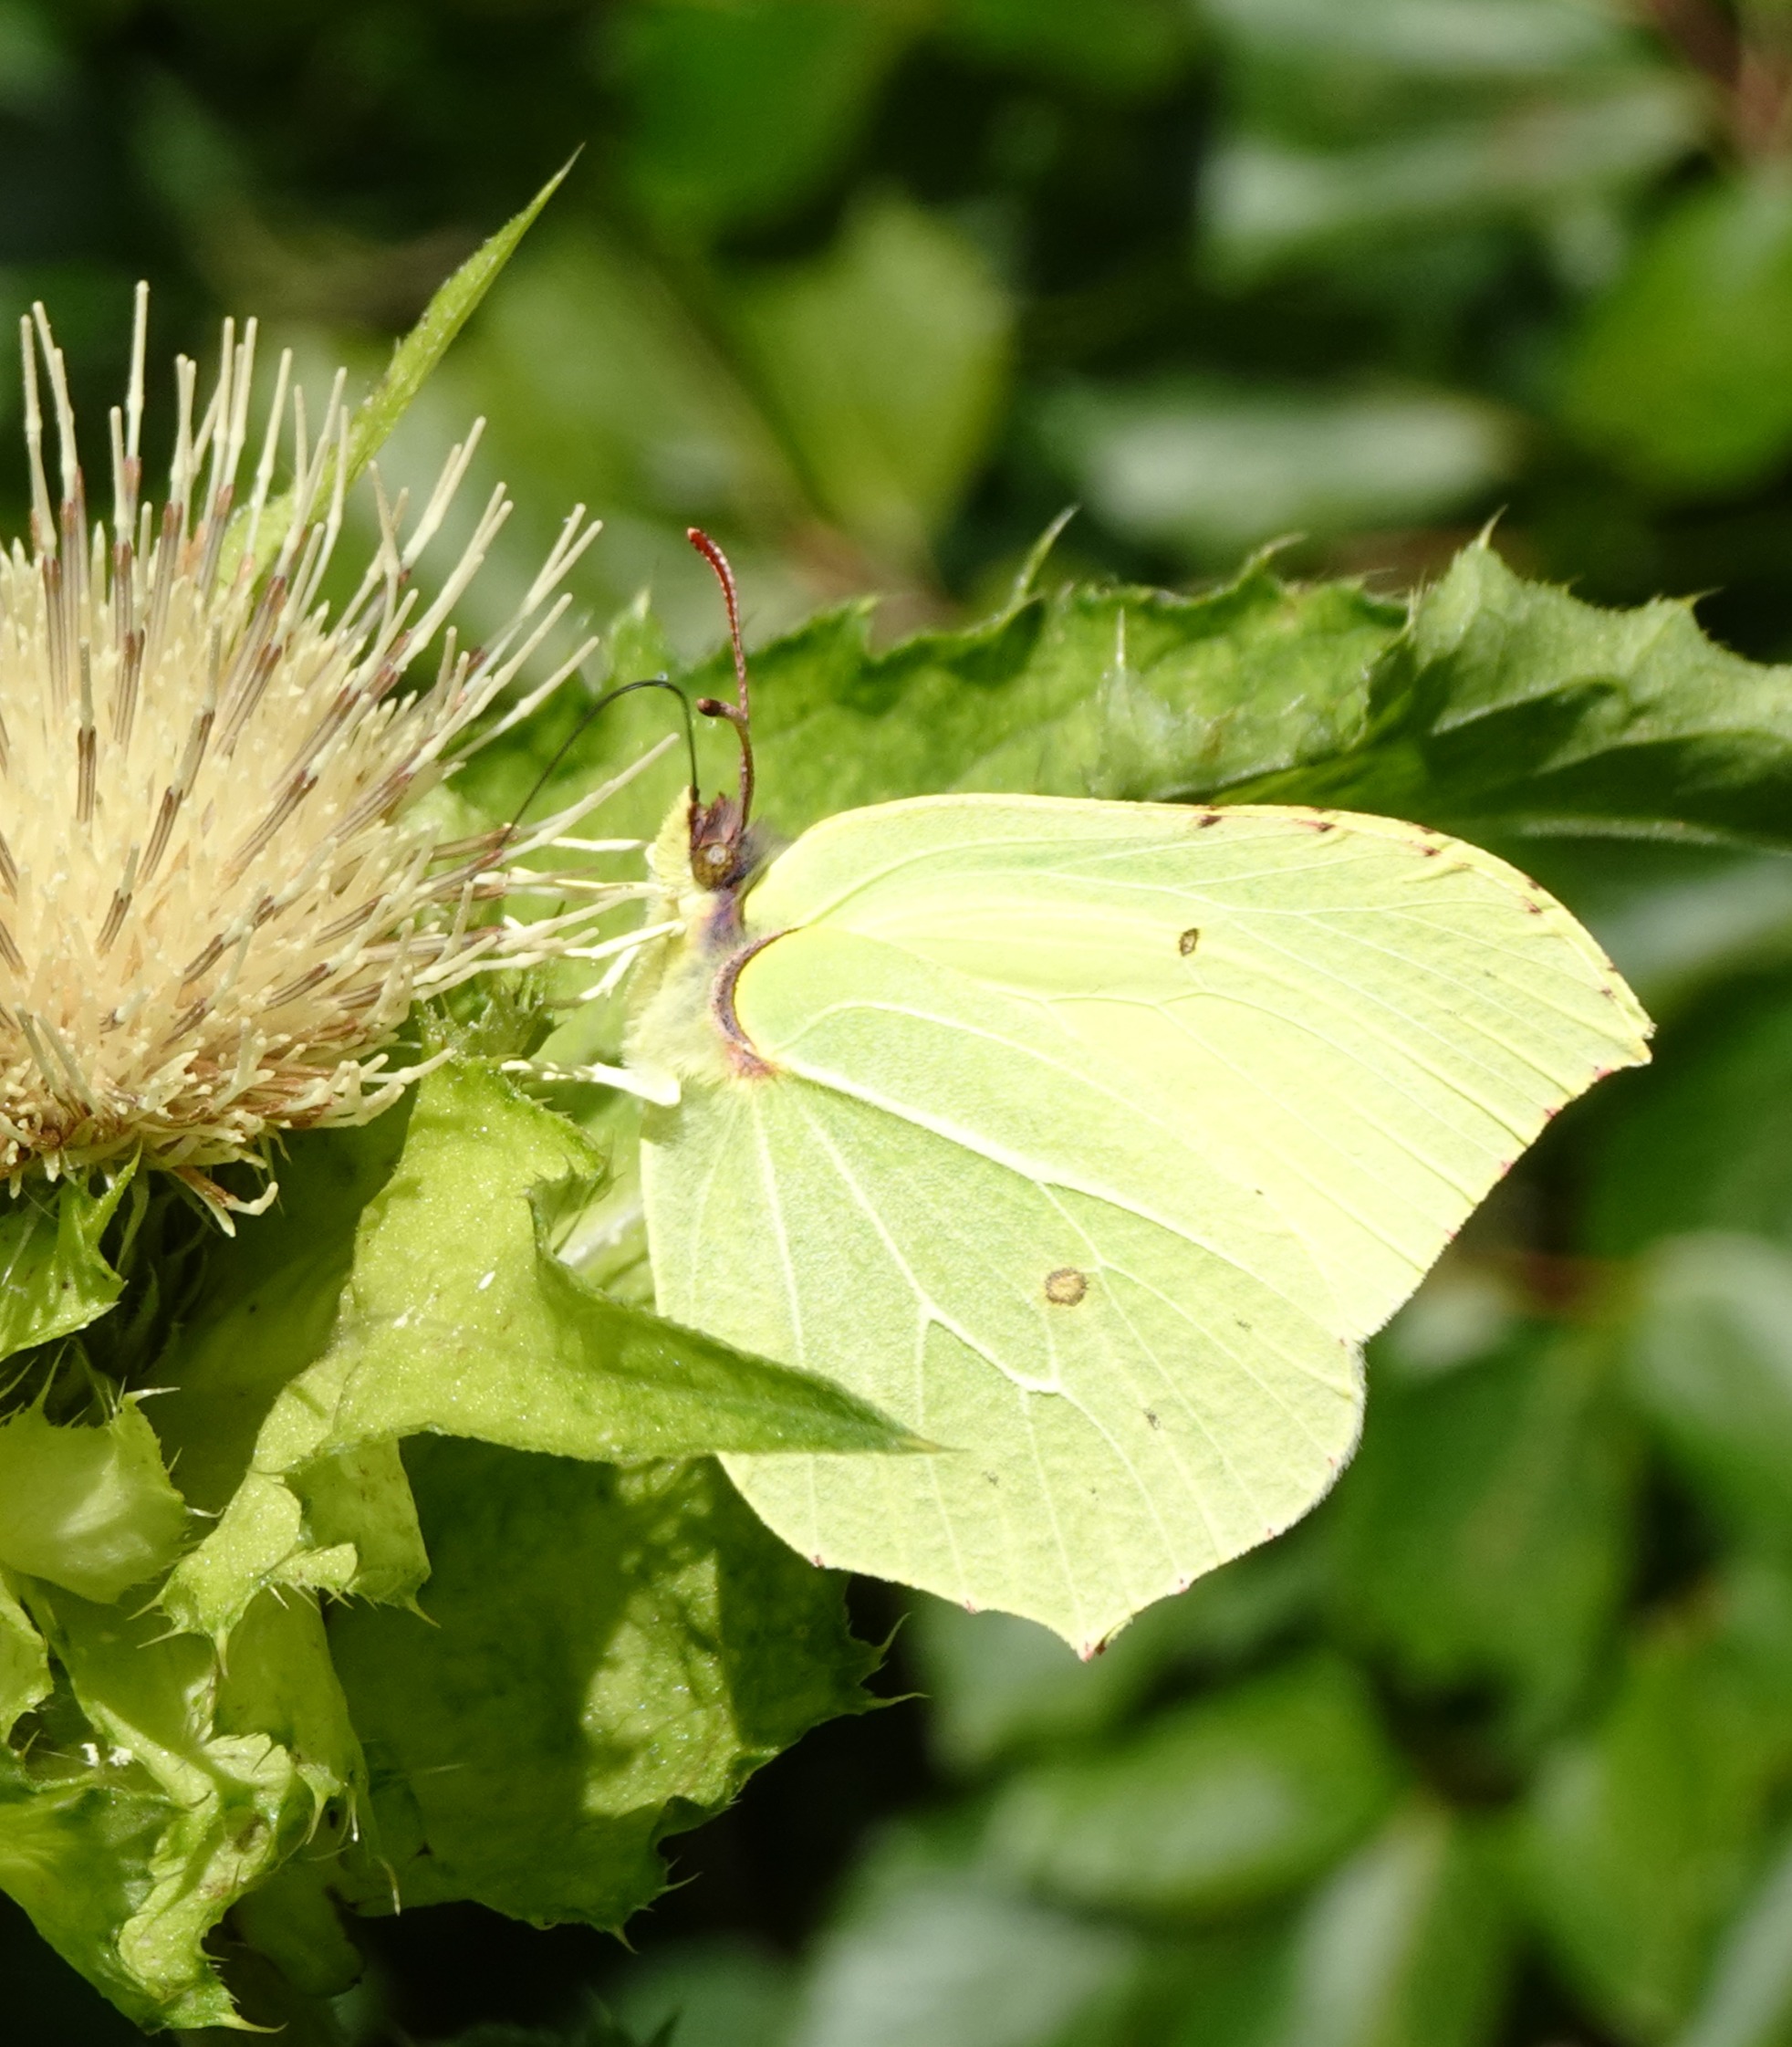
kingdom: Animalia
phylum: Arthropoda
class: Insecta
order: Lepidoptera
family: Pieridae
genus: Gonepteryx
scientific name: Gonepteryx rhamni
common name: Citronsommerfugl
